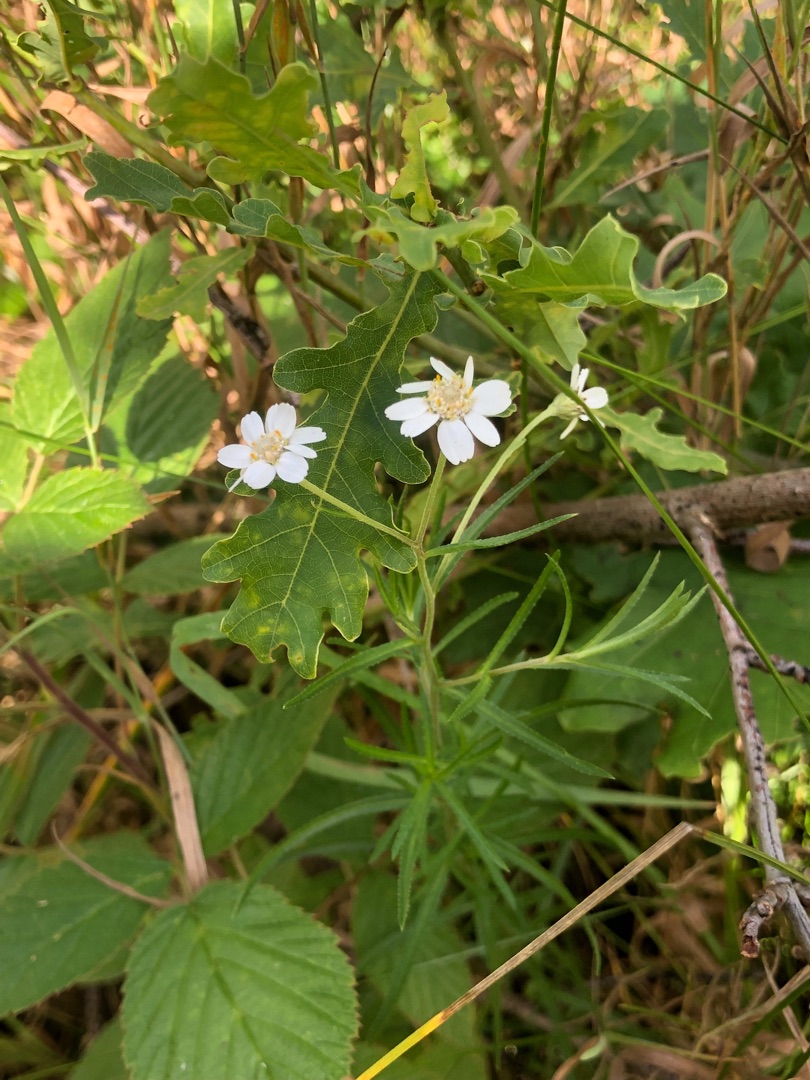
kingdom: Plantae
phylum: Tracheophyta
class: Magnoliopsida
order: Asterales
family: Asteraceae
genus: Achillea
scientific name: Achillea ptarmica
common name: Nyse-røllike
